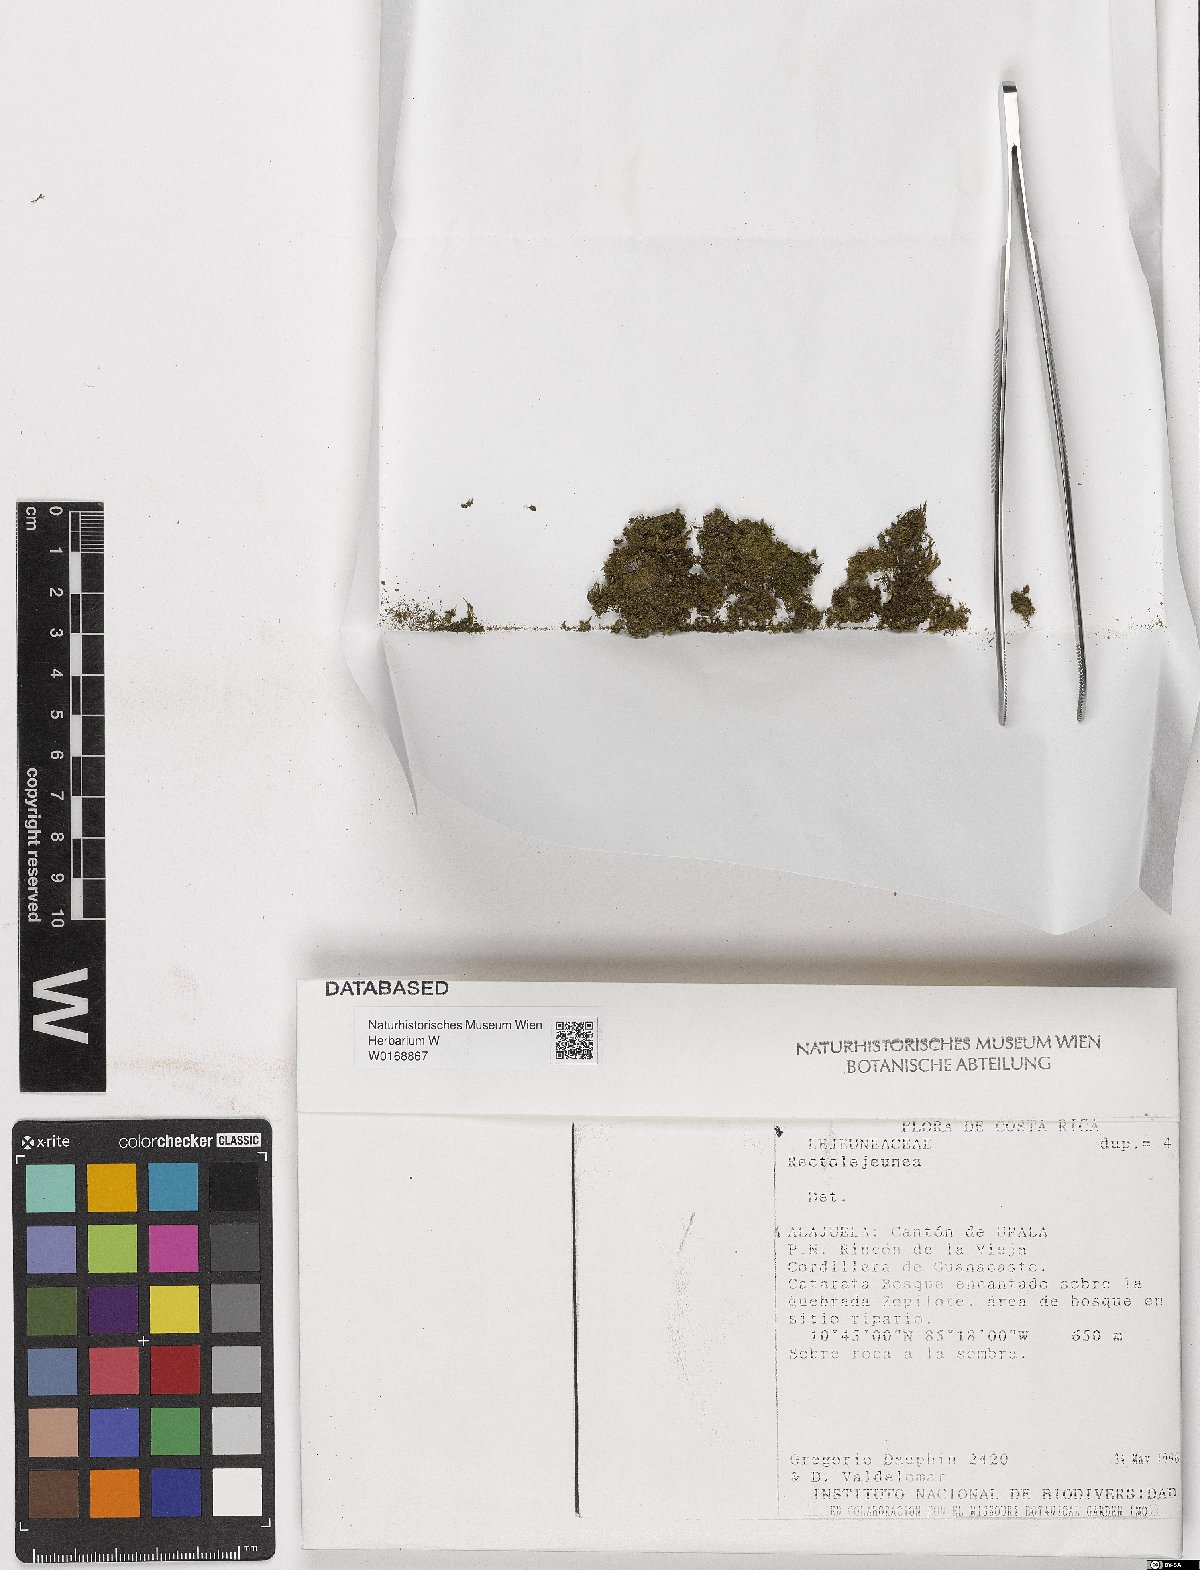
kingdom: Plantae
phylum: Marchantiophyta
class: Jungermanniopsida
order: Porellales
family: Lejeuneaceae
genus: Rectolejeunea
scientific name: Rectolejeunea
